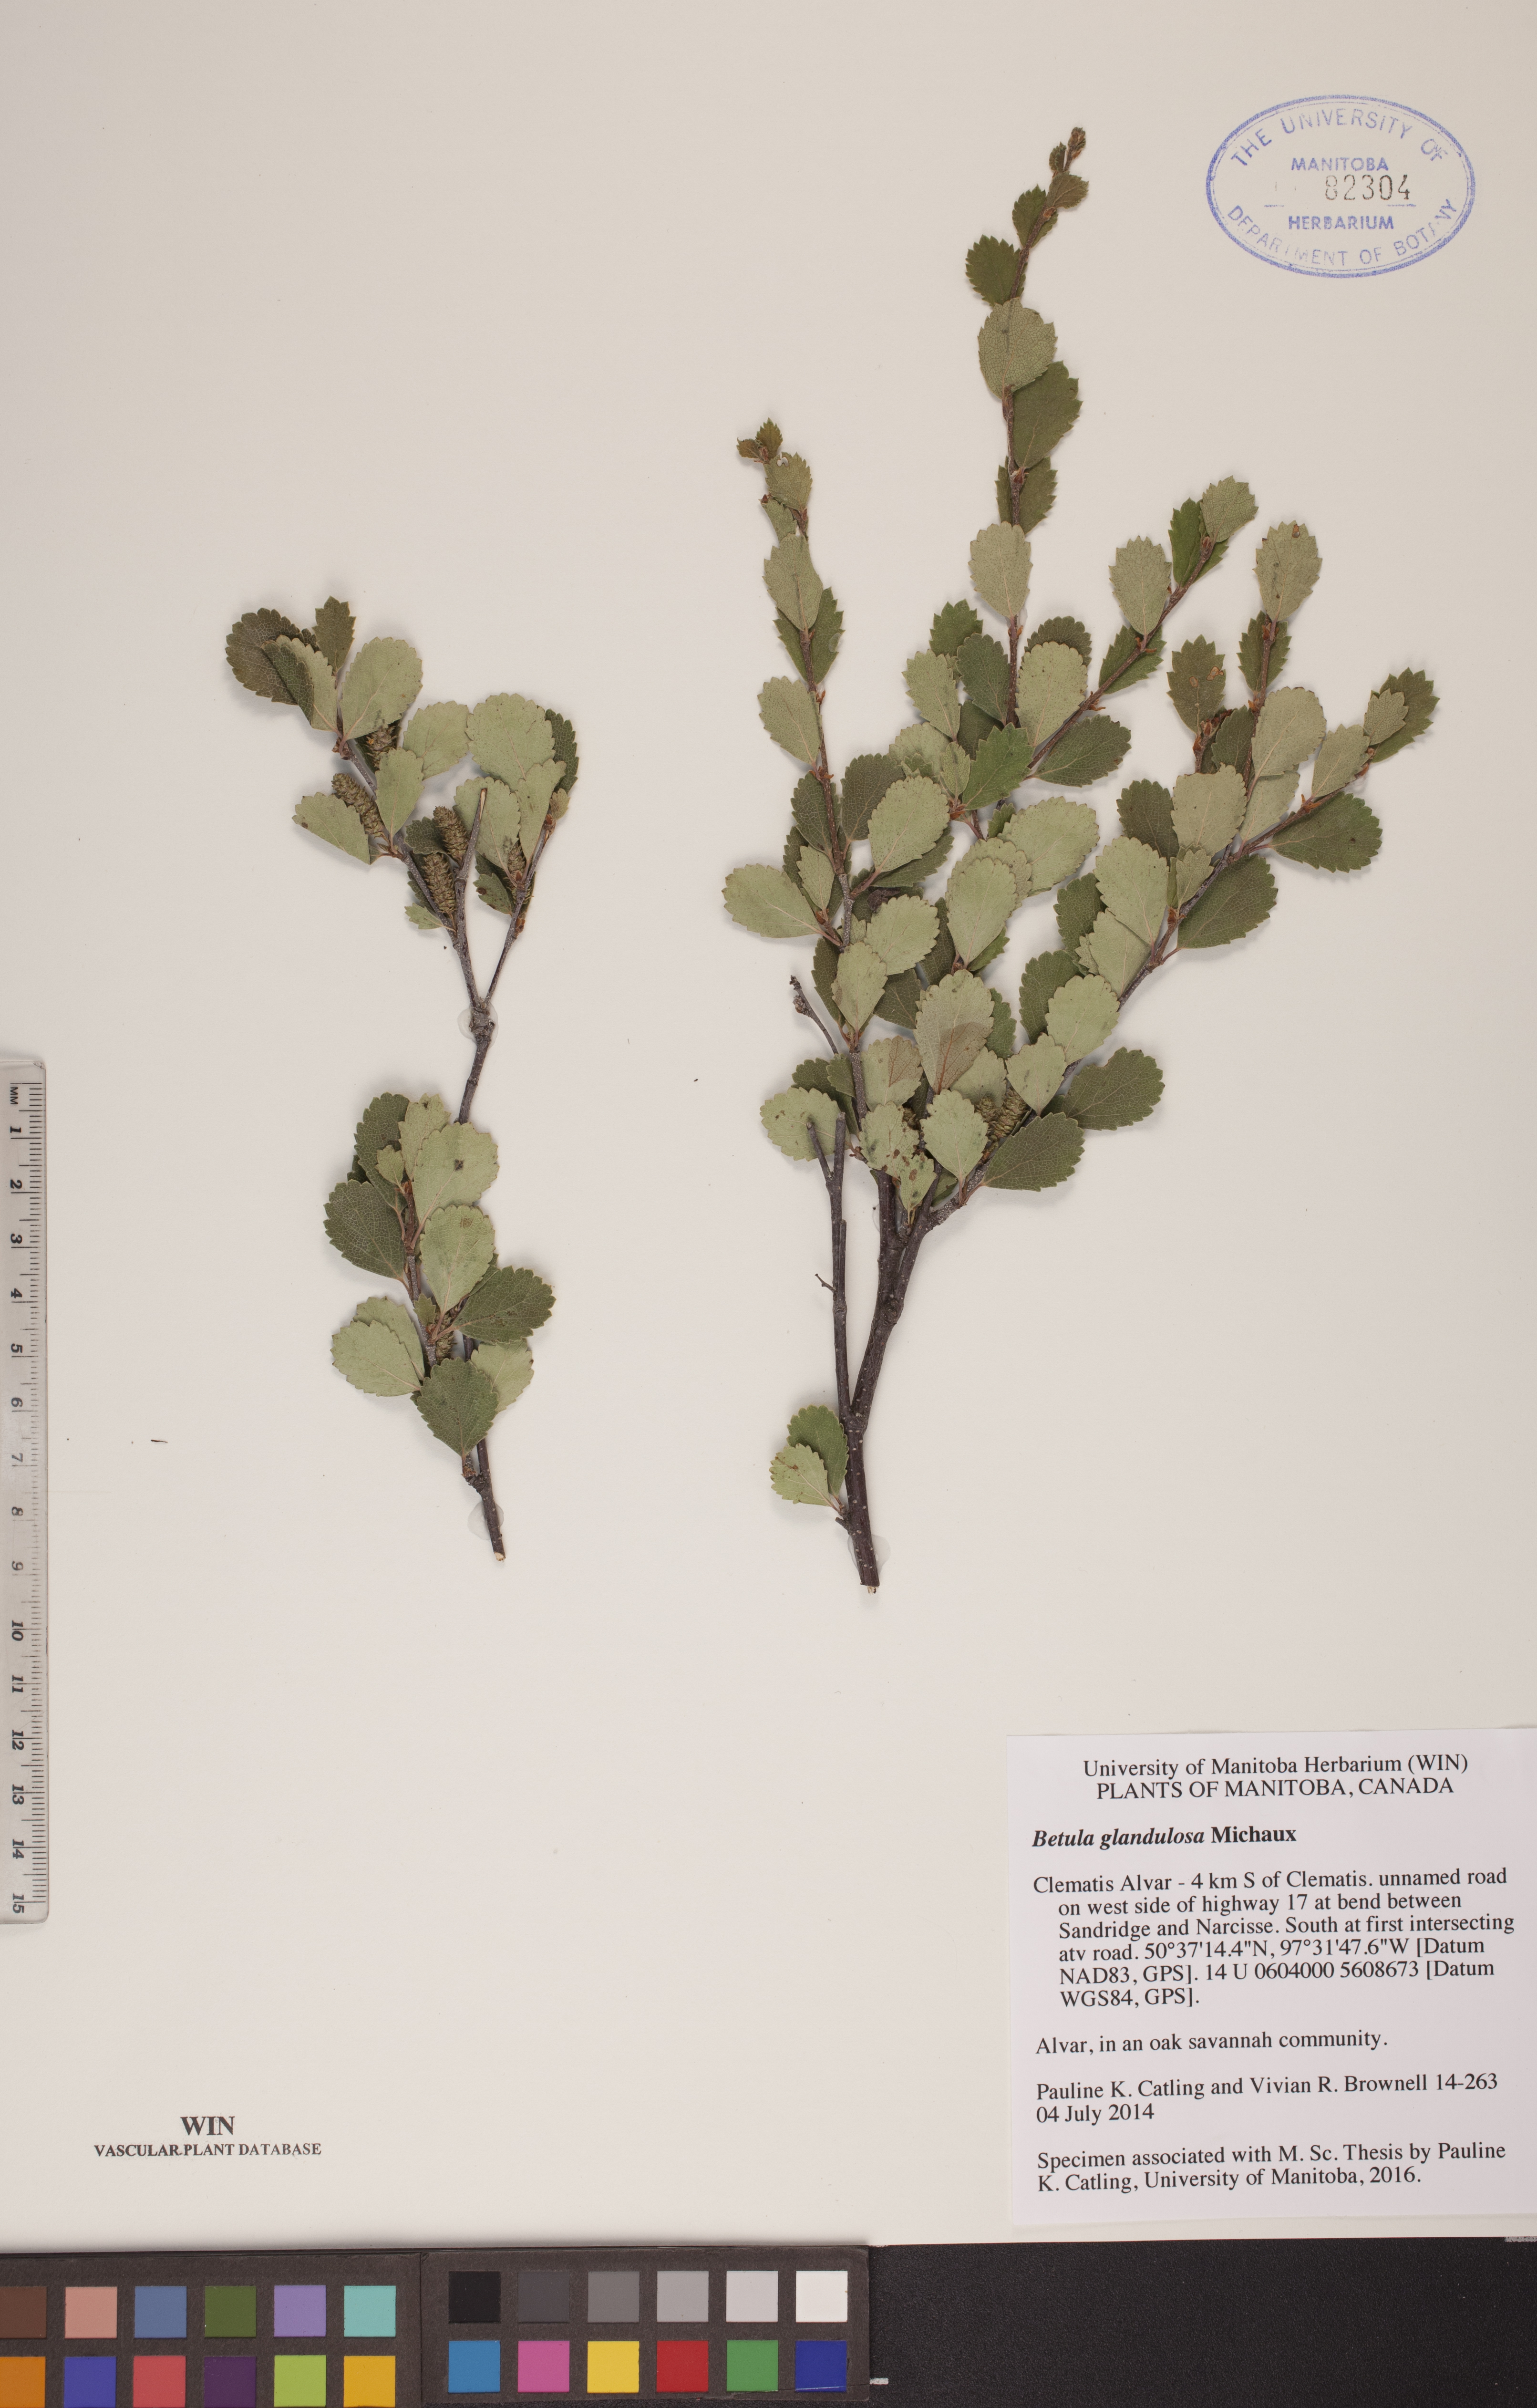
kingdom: Plantae
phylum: Tracheophyta
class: Magnoliopsida
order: Fagales
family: Betulaceae
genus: Betula
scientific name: Betula glandulosa
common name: Dwarf birch
